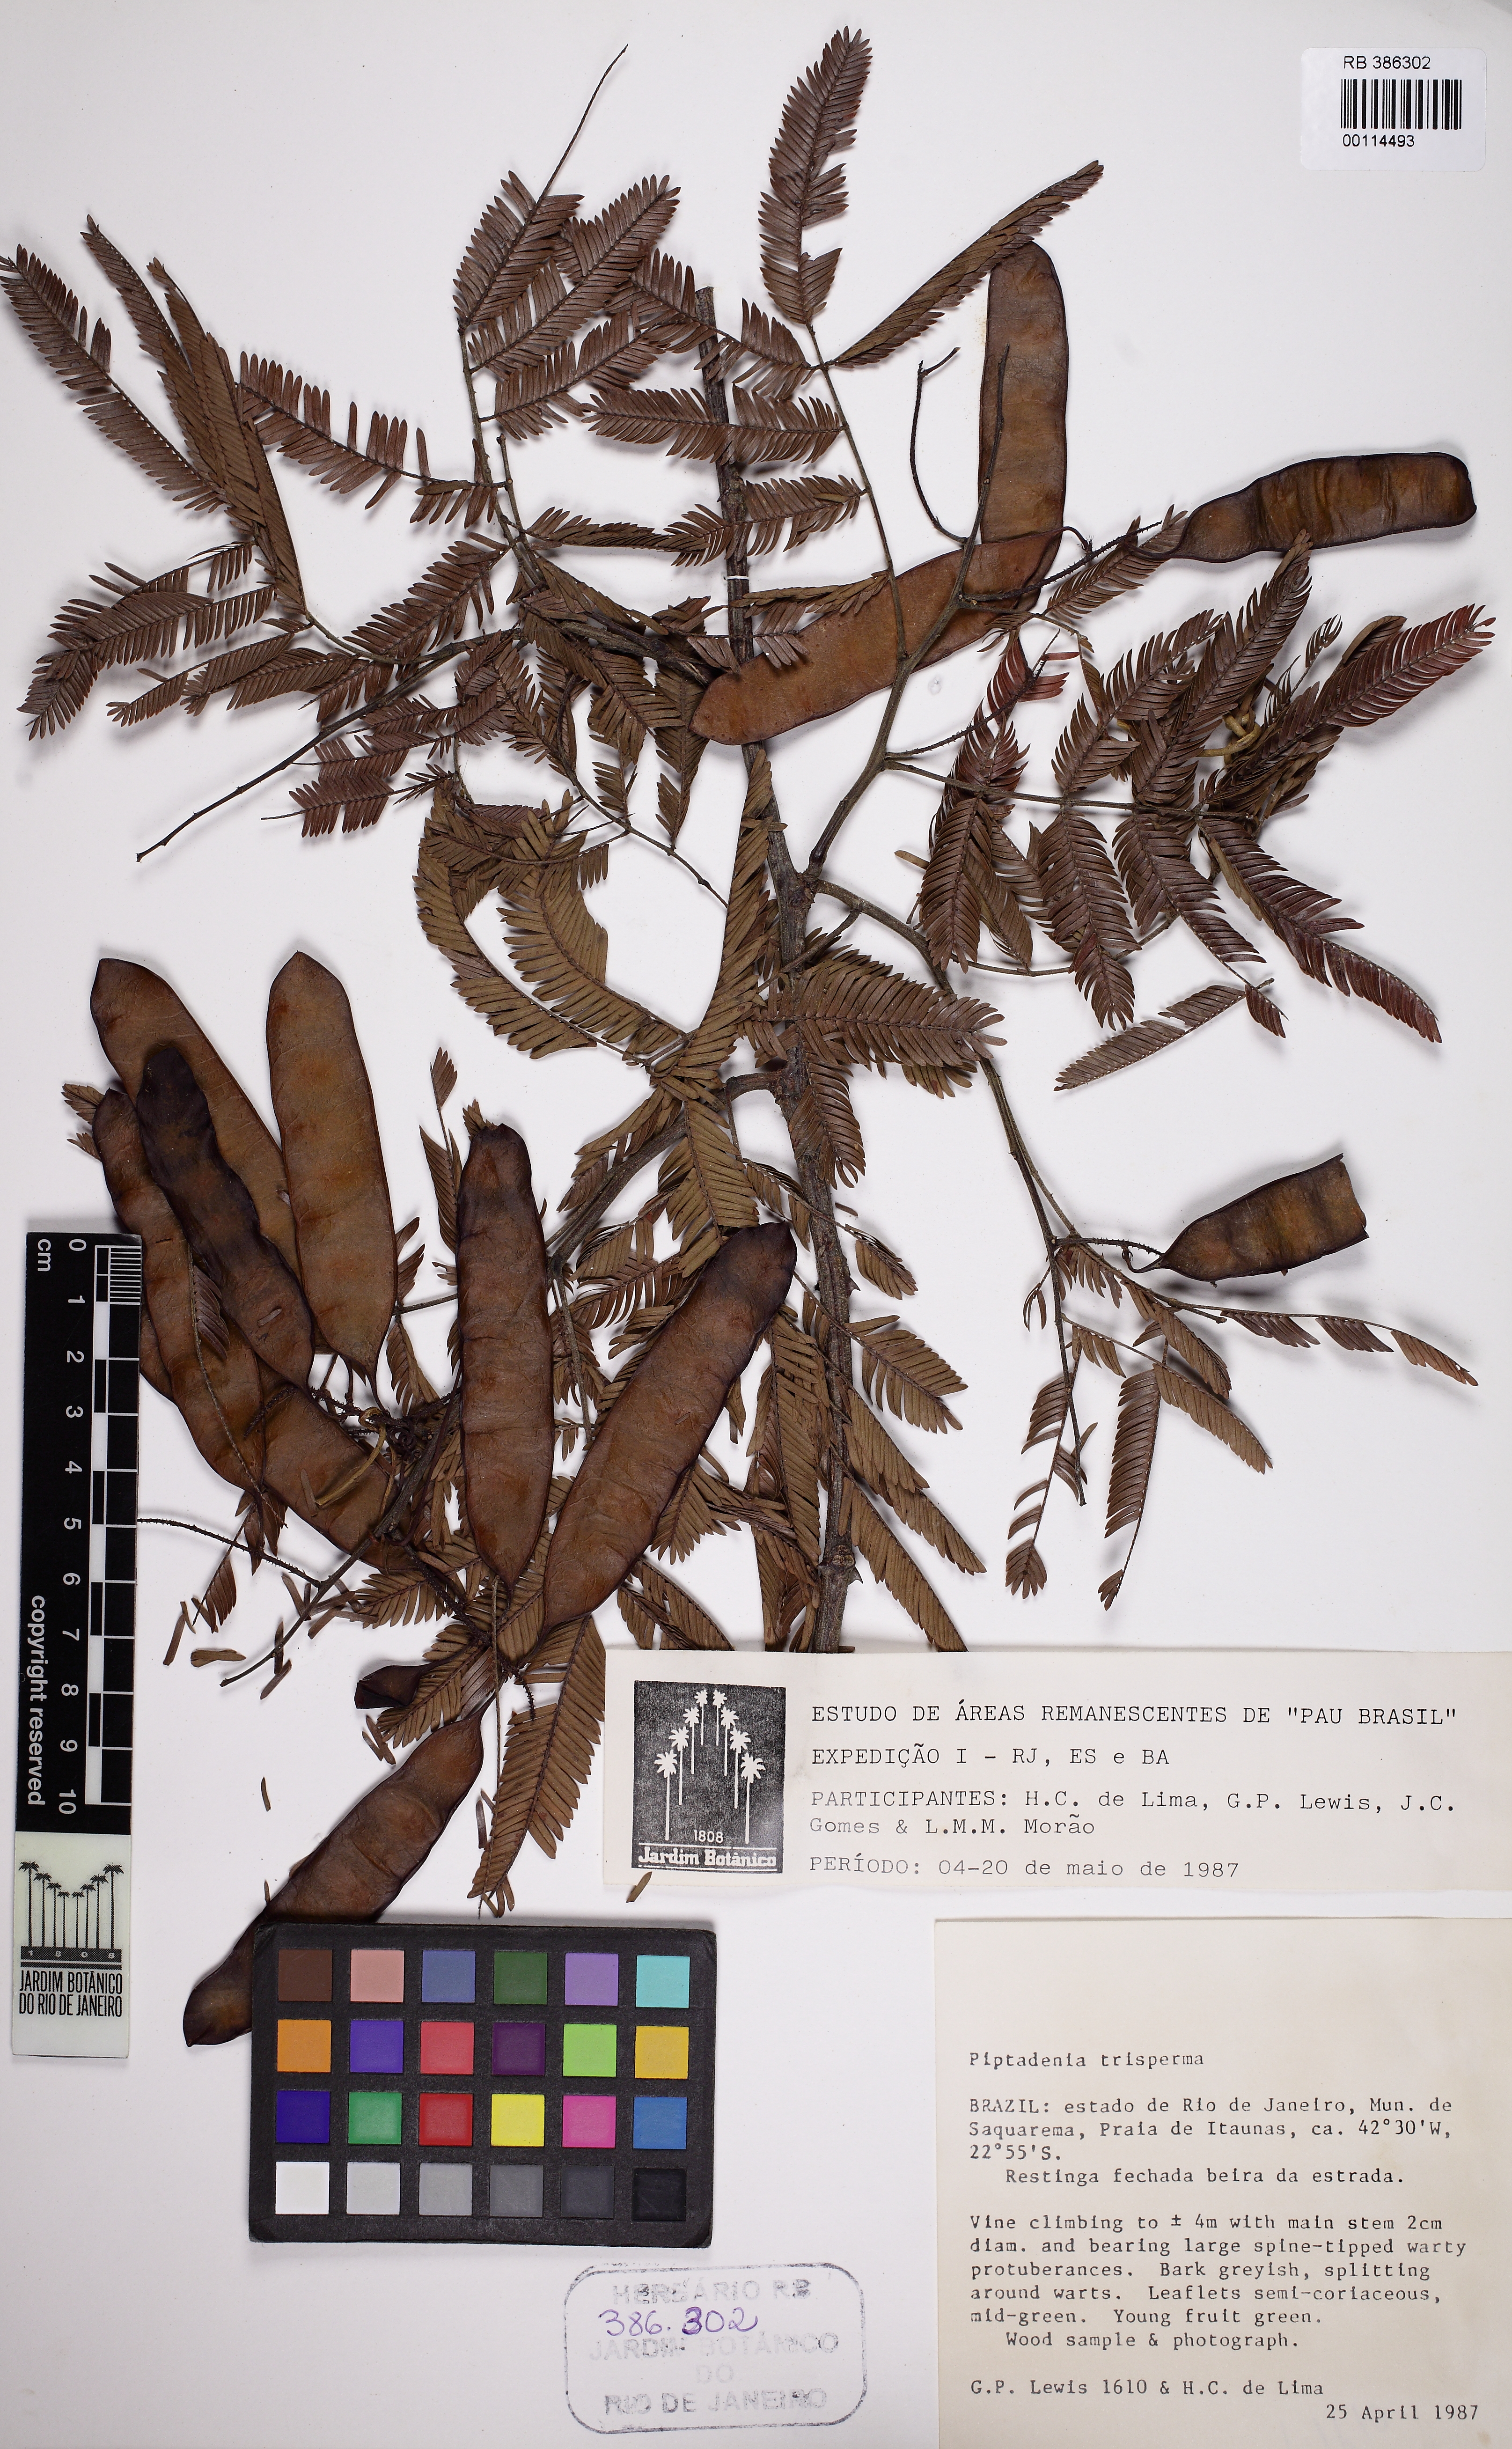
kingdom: Plantae
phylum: Tracheophyta
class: Magnoliopsida
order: Fabales
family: Fabaceae
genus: Piptadenia
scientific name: Piptadenia trisperma
